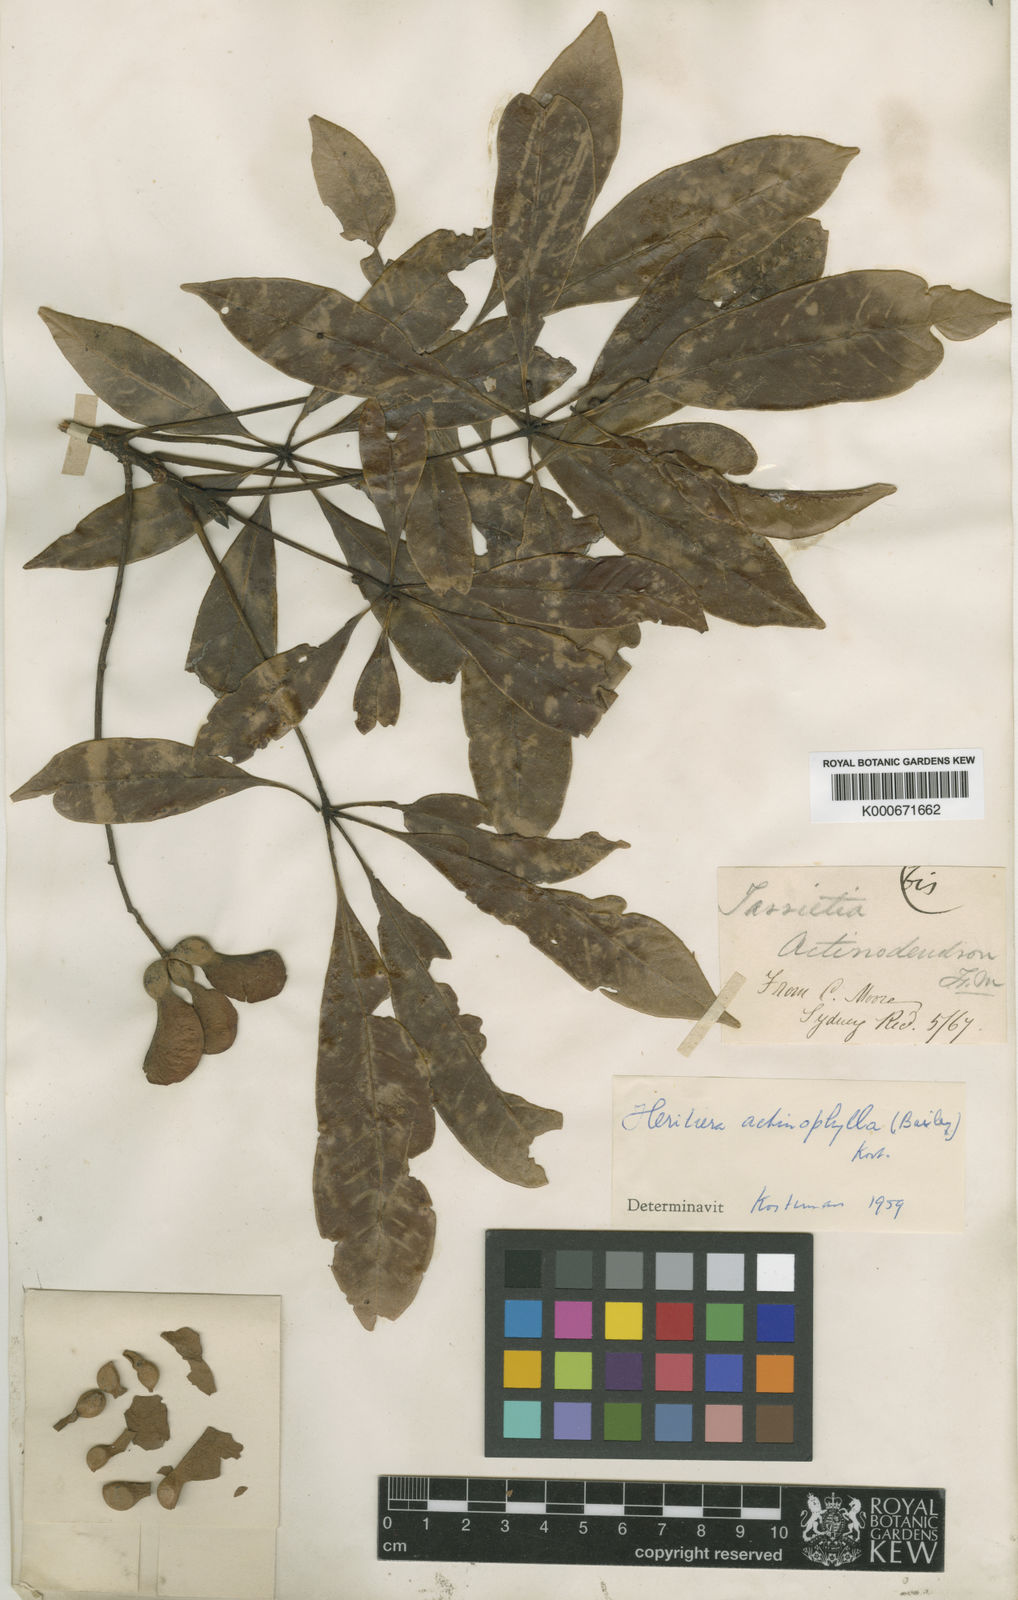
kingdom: Plantae
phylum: Tracheophyta
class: Magnoliopsida
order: Malvales
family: Malvaceae
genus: Argyrodendron
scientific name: Argyrodendron actinophyllum
